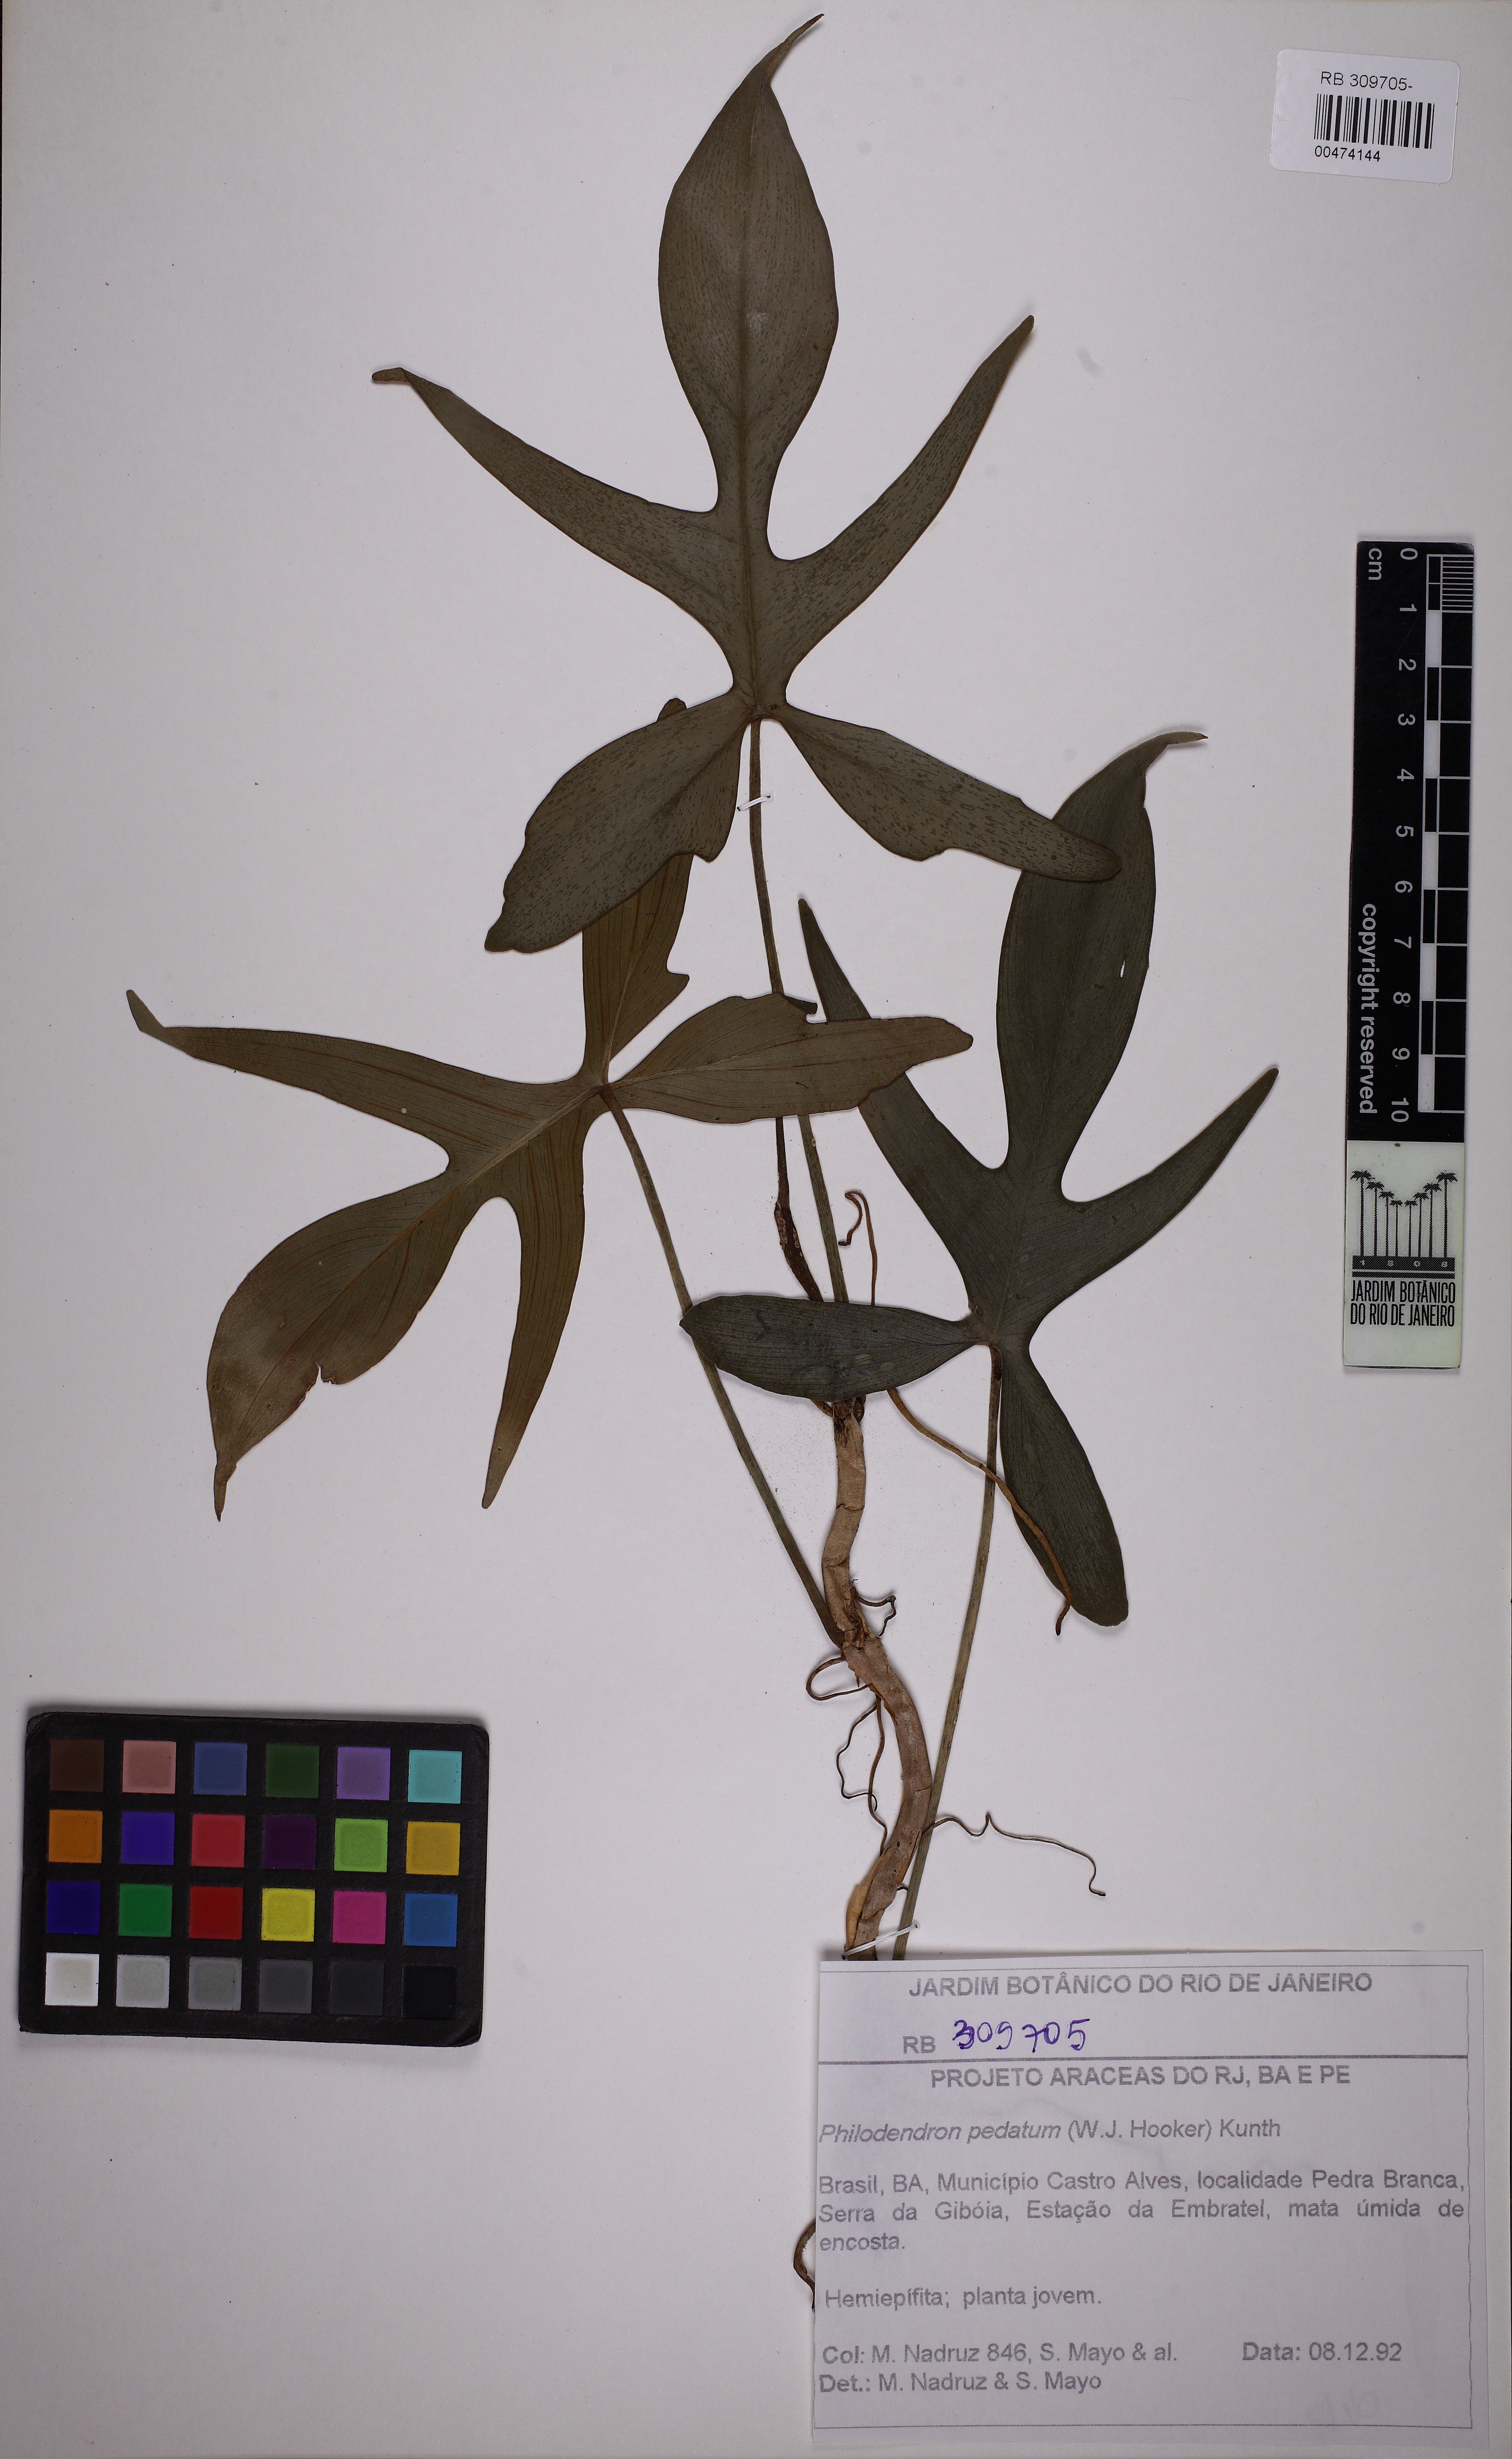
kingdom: Plantae
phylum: Tracheophyta
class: Liliopsida
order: Alismatales
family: Araceae
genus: Philodendron
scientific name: Philodendron pedatum
